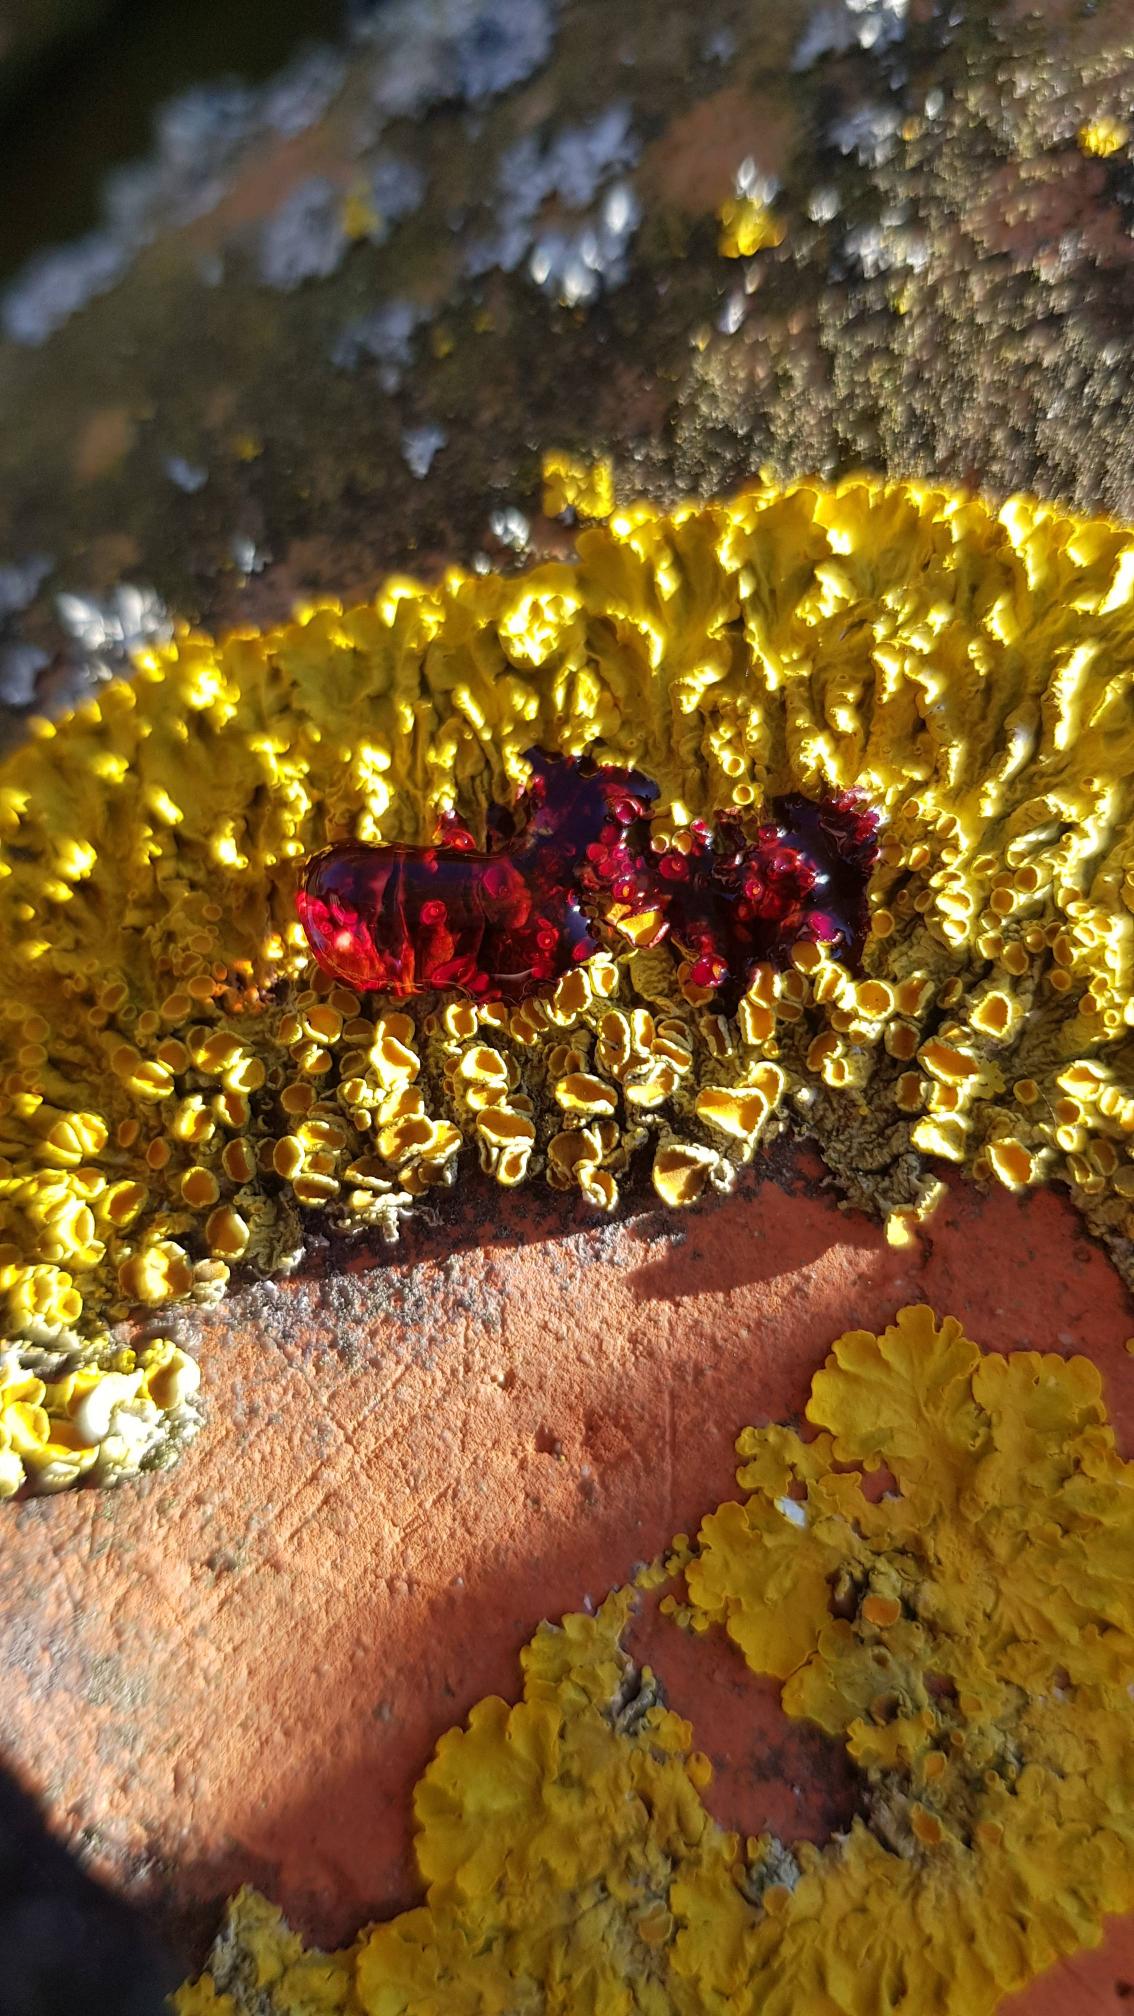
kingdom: Fungi
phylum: Ascomycota
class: Lecanoromycetes
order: Teloschistales
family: Teloschistaceae
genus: Xanthoria
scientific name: Xanthoria parietina
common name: Almindelig væggelav
